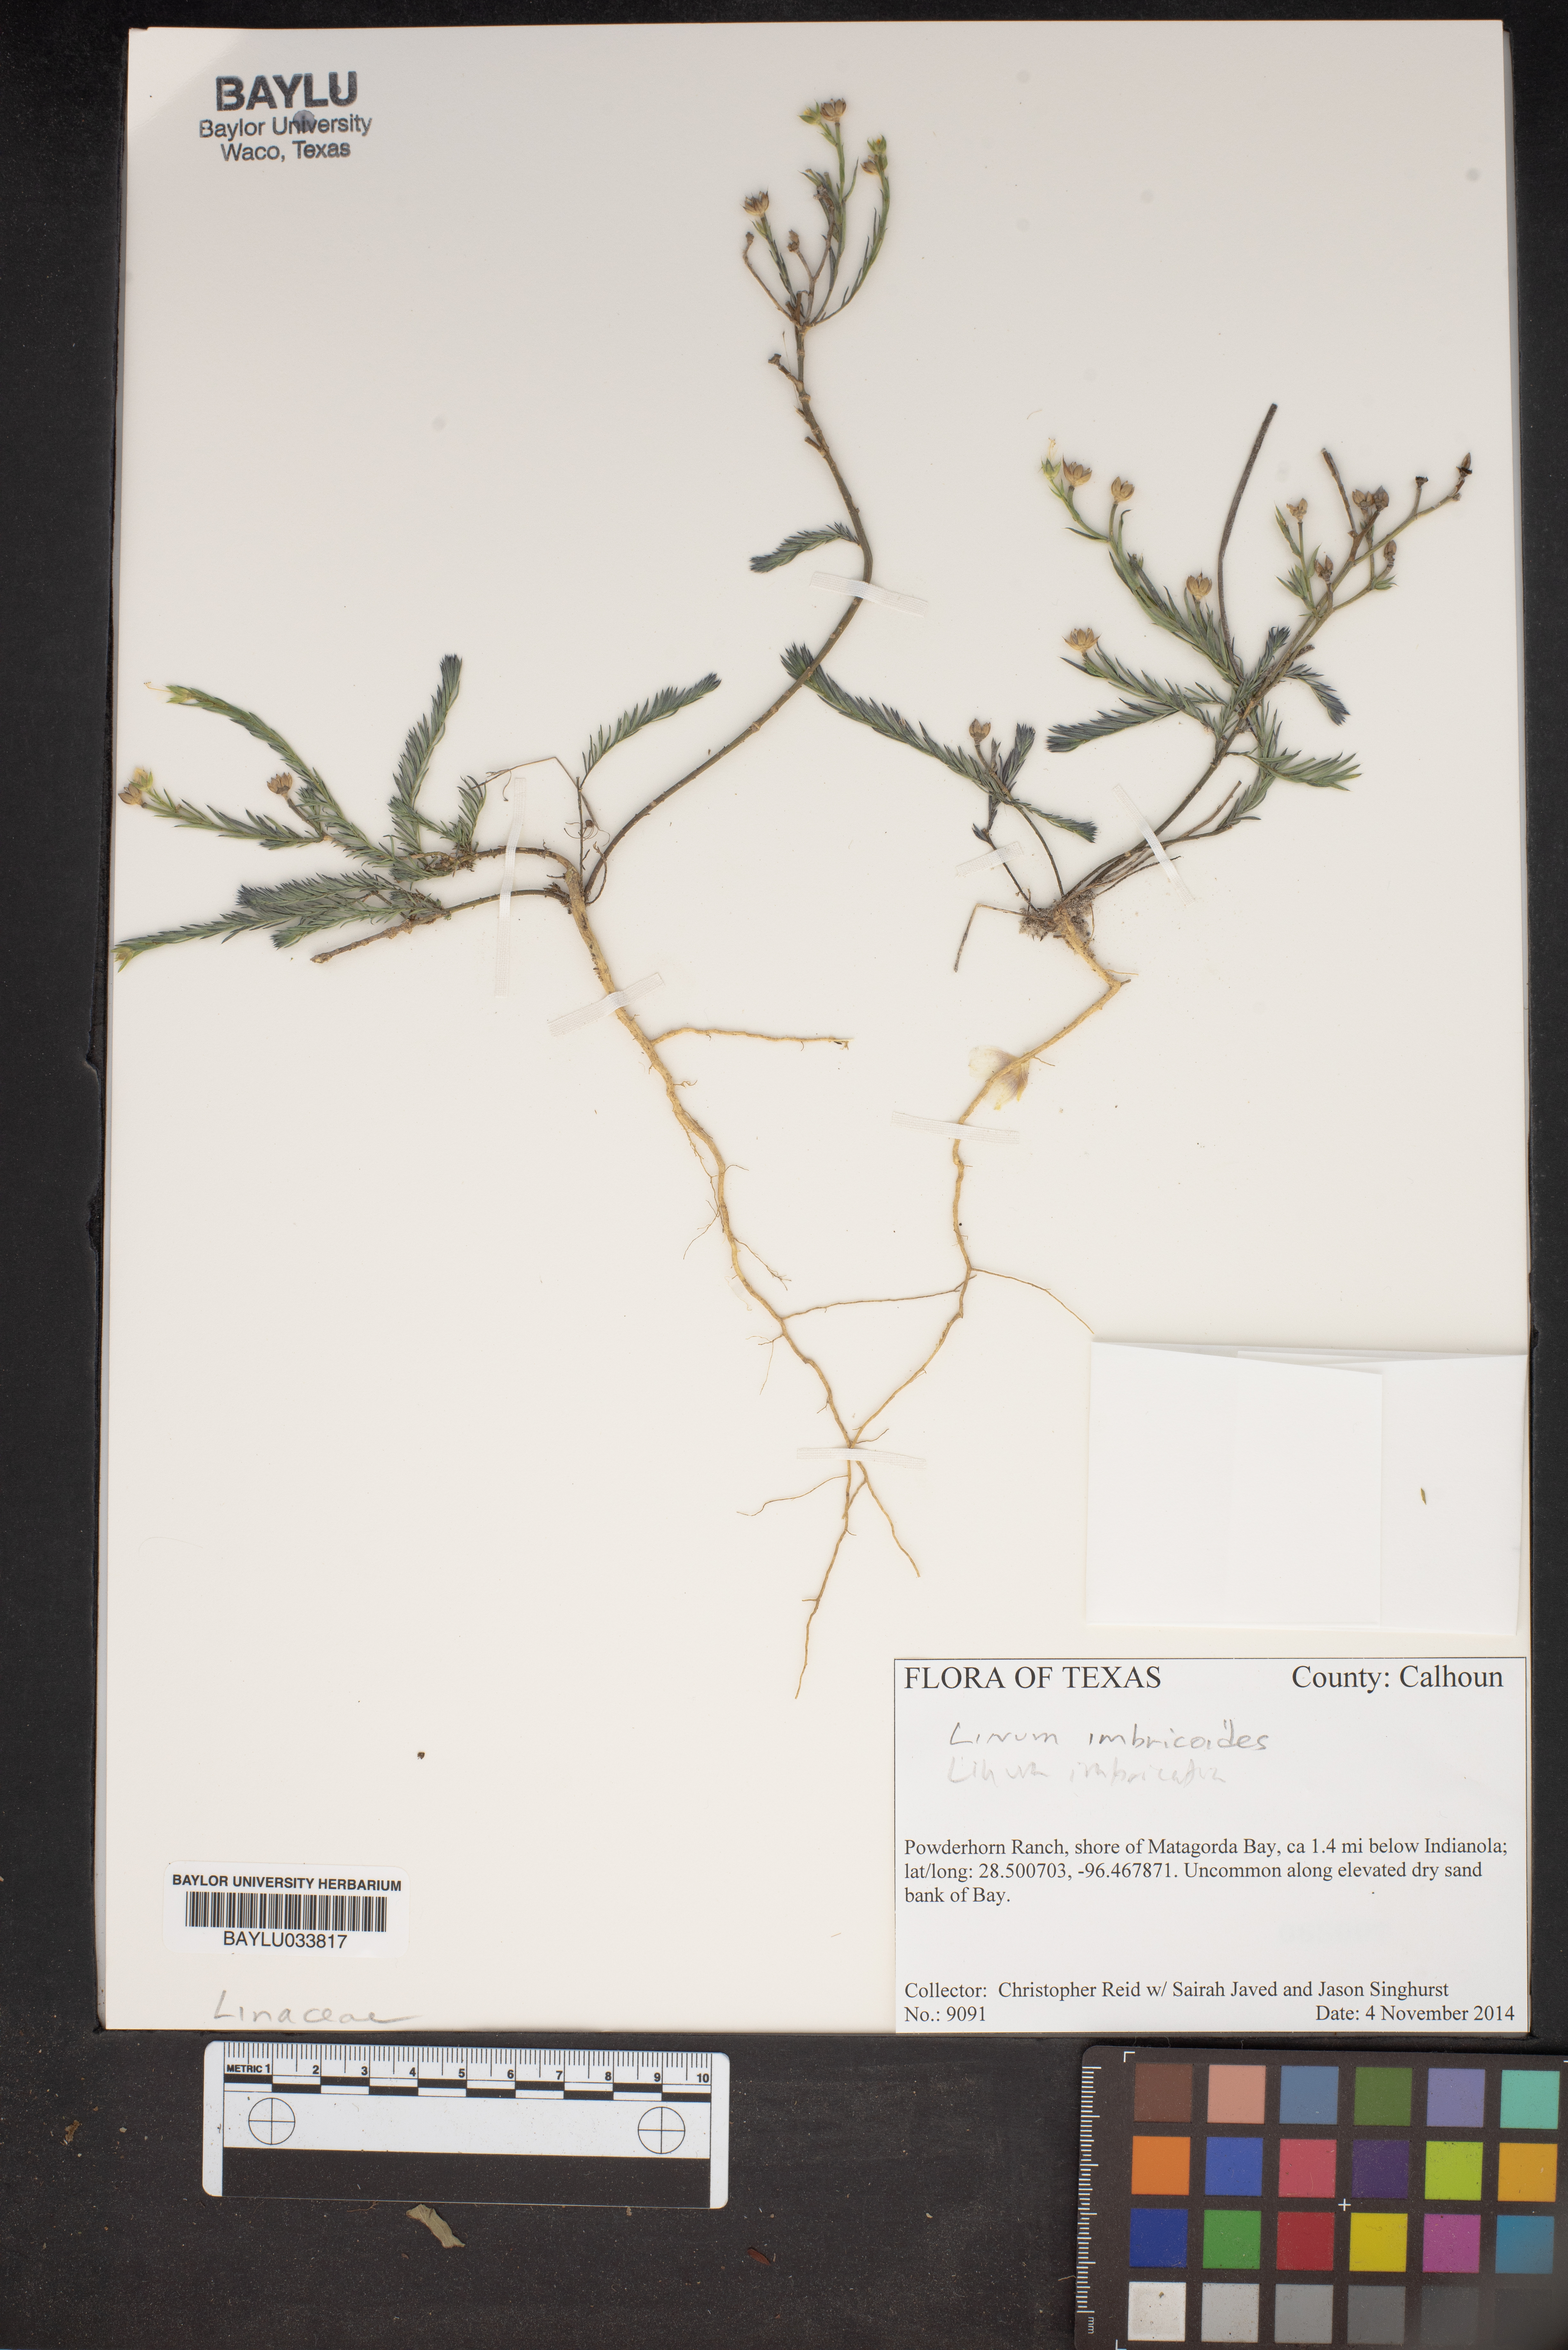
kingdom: Plantae
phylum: Tracheophyta
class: Magnoliopsida
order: Malpighiales
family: Linaceae
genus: Linum
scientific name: Linum imbricatum
